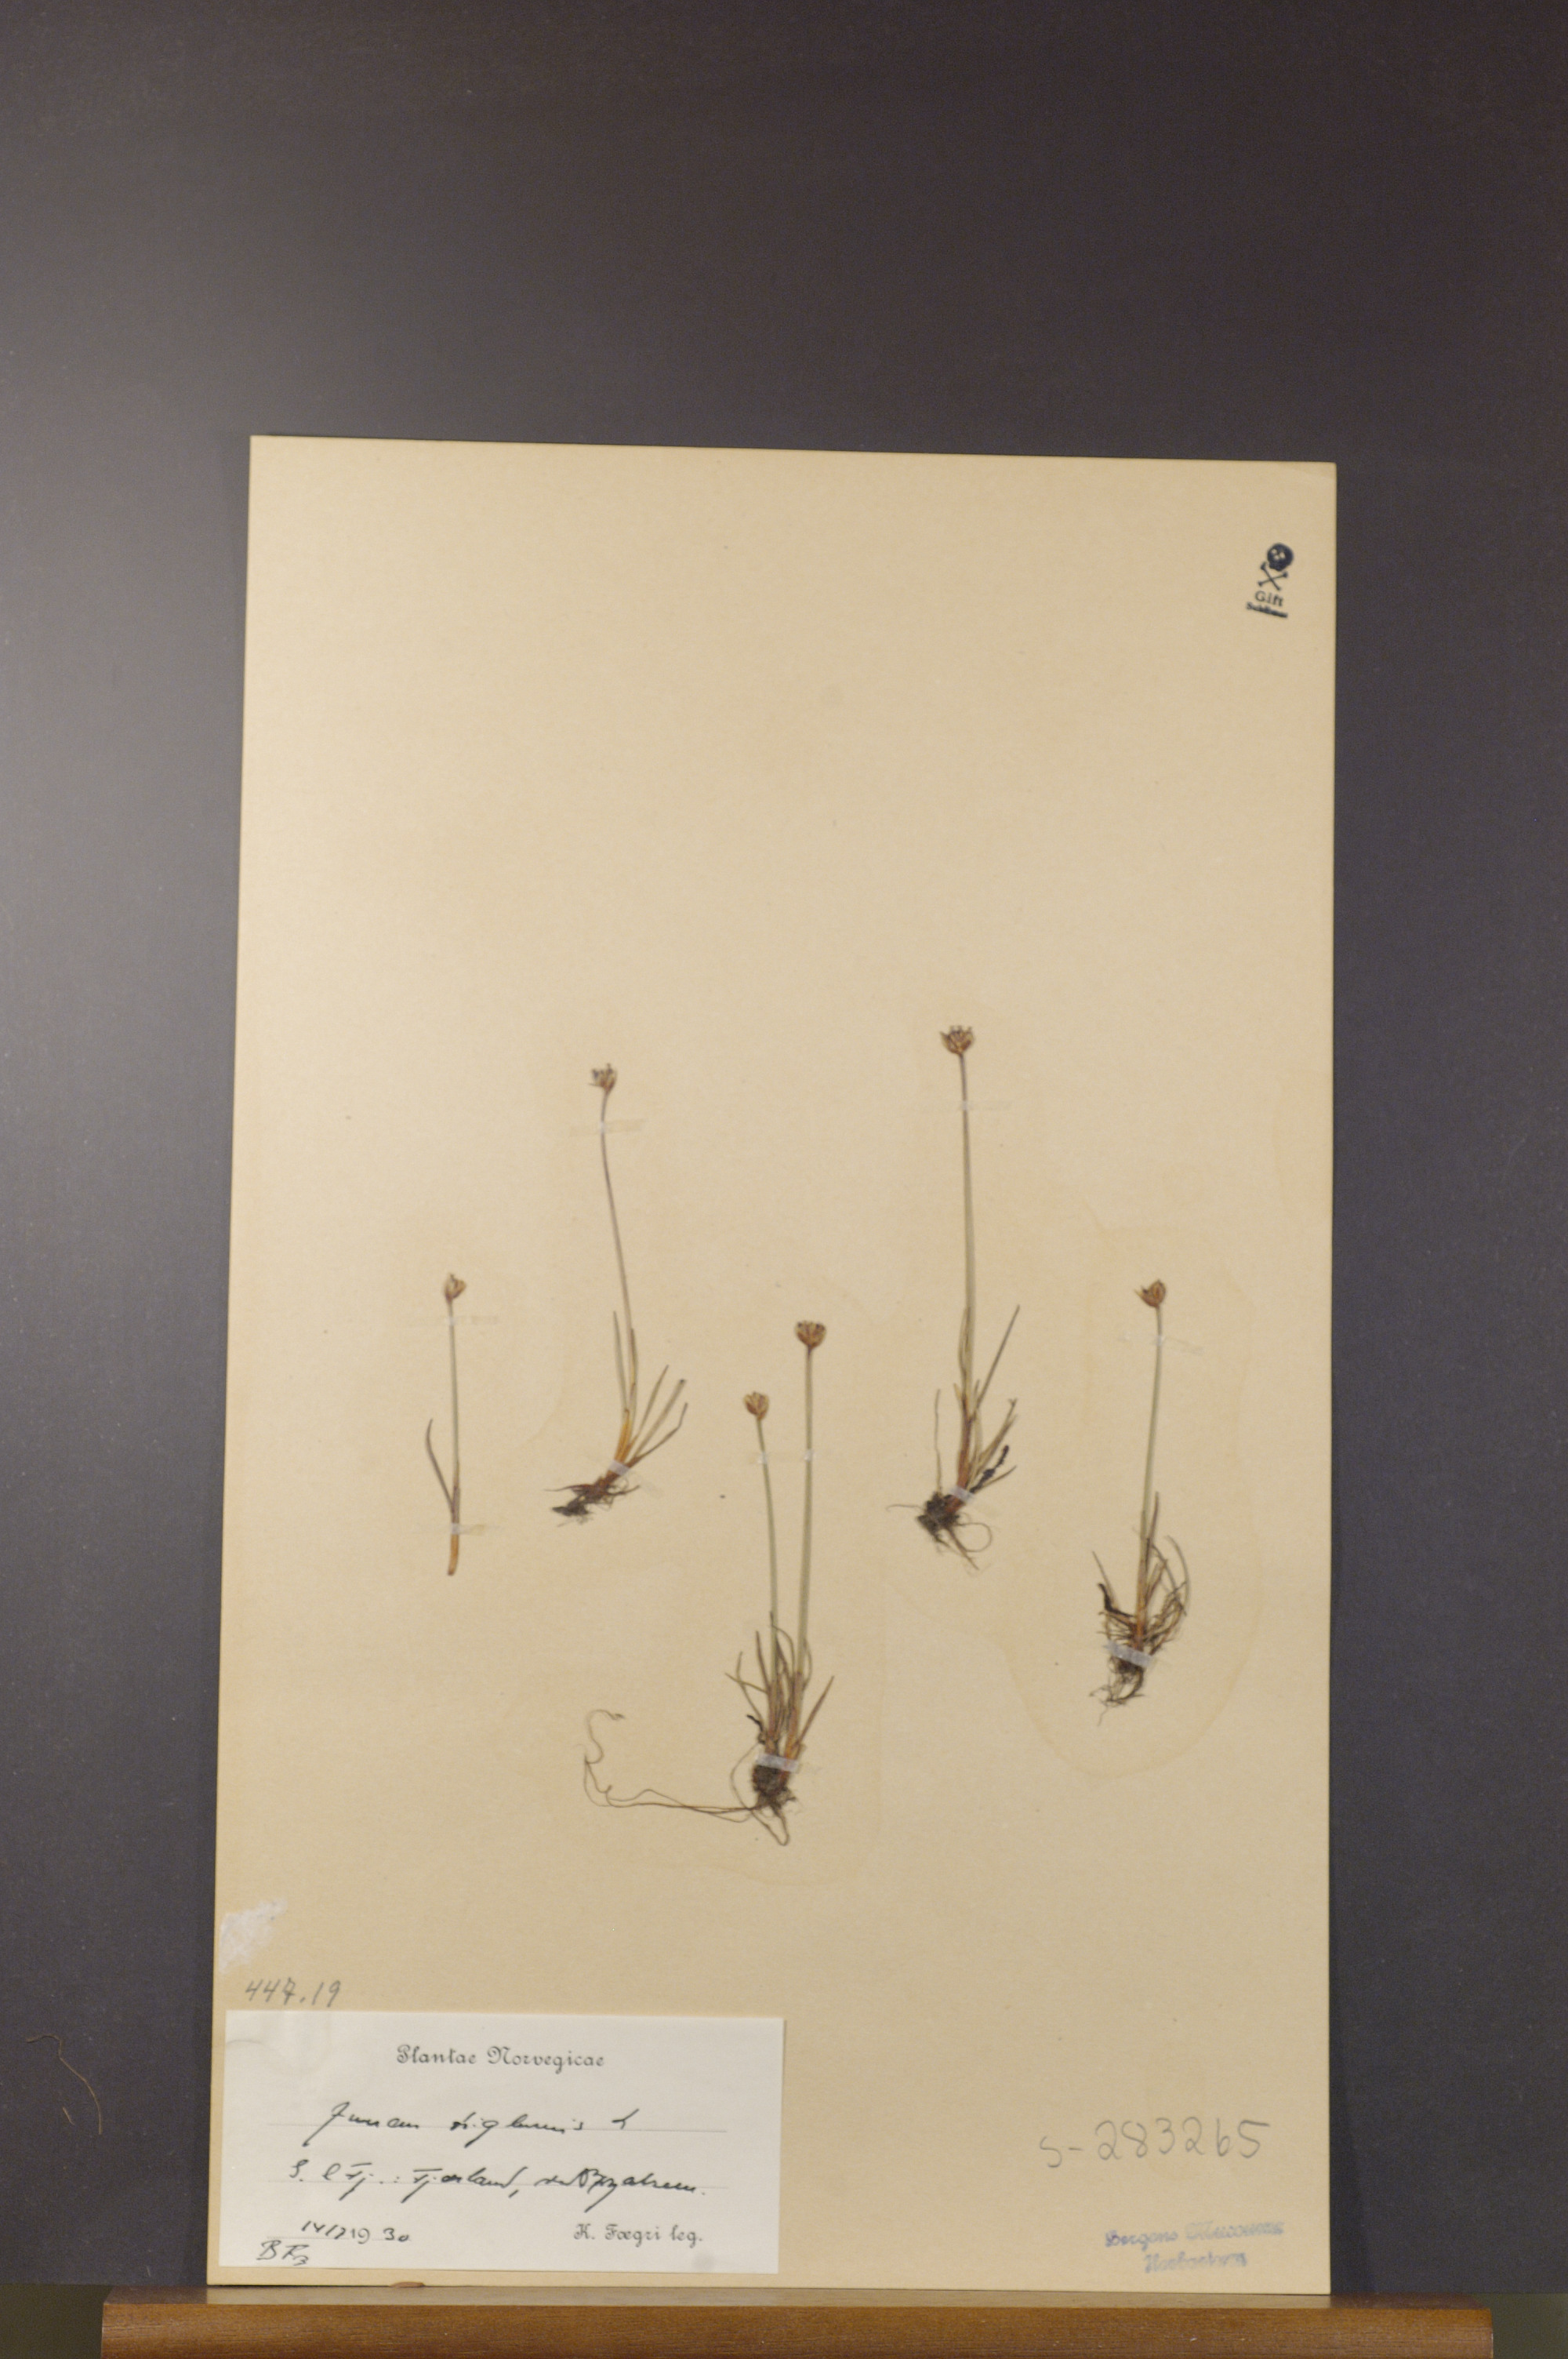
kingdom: Plantae
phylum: Tracheophyta
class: Liliopsida
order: Poales
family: Juncaceae
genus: Juncus
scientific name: Juncus triglumis
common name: Three-flowered rush
